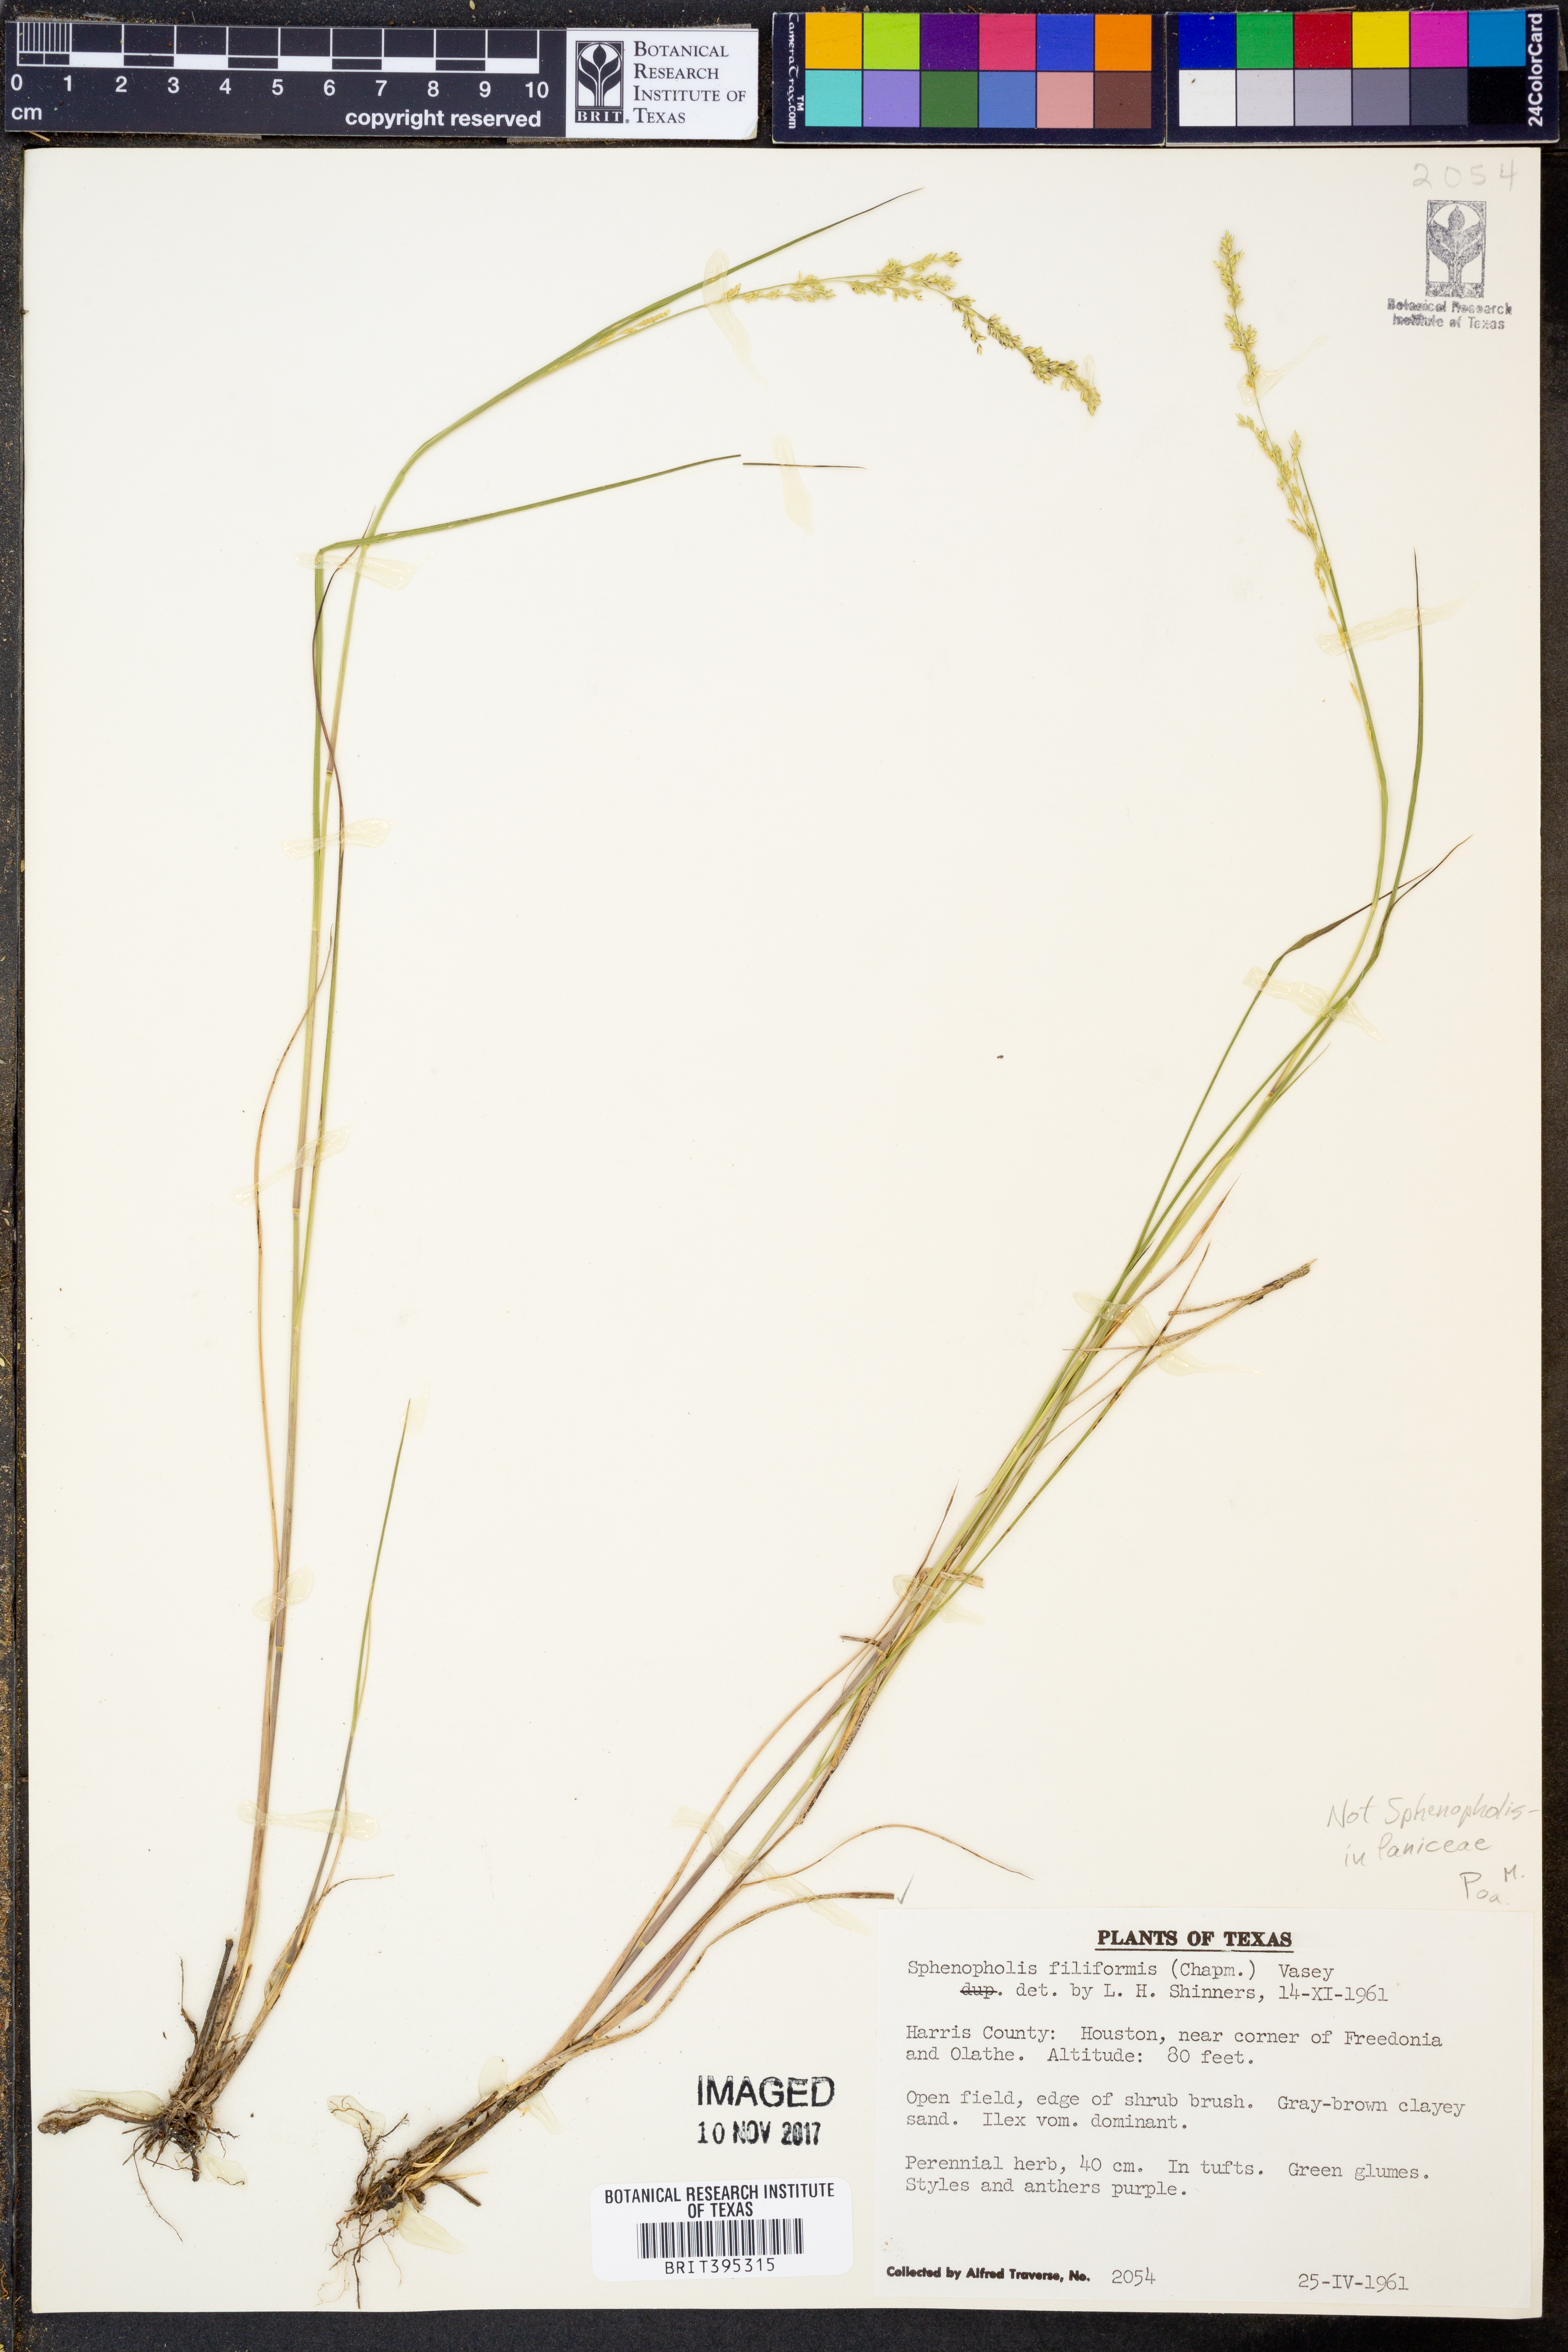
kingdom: Plantae
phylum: Tracheophyta
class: Liliopsida
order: Poales
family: Poaceae
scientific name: Poaceae
